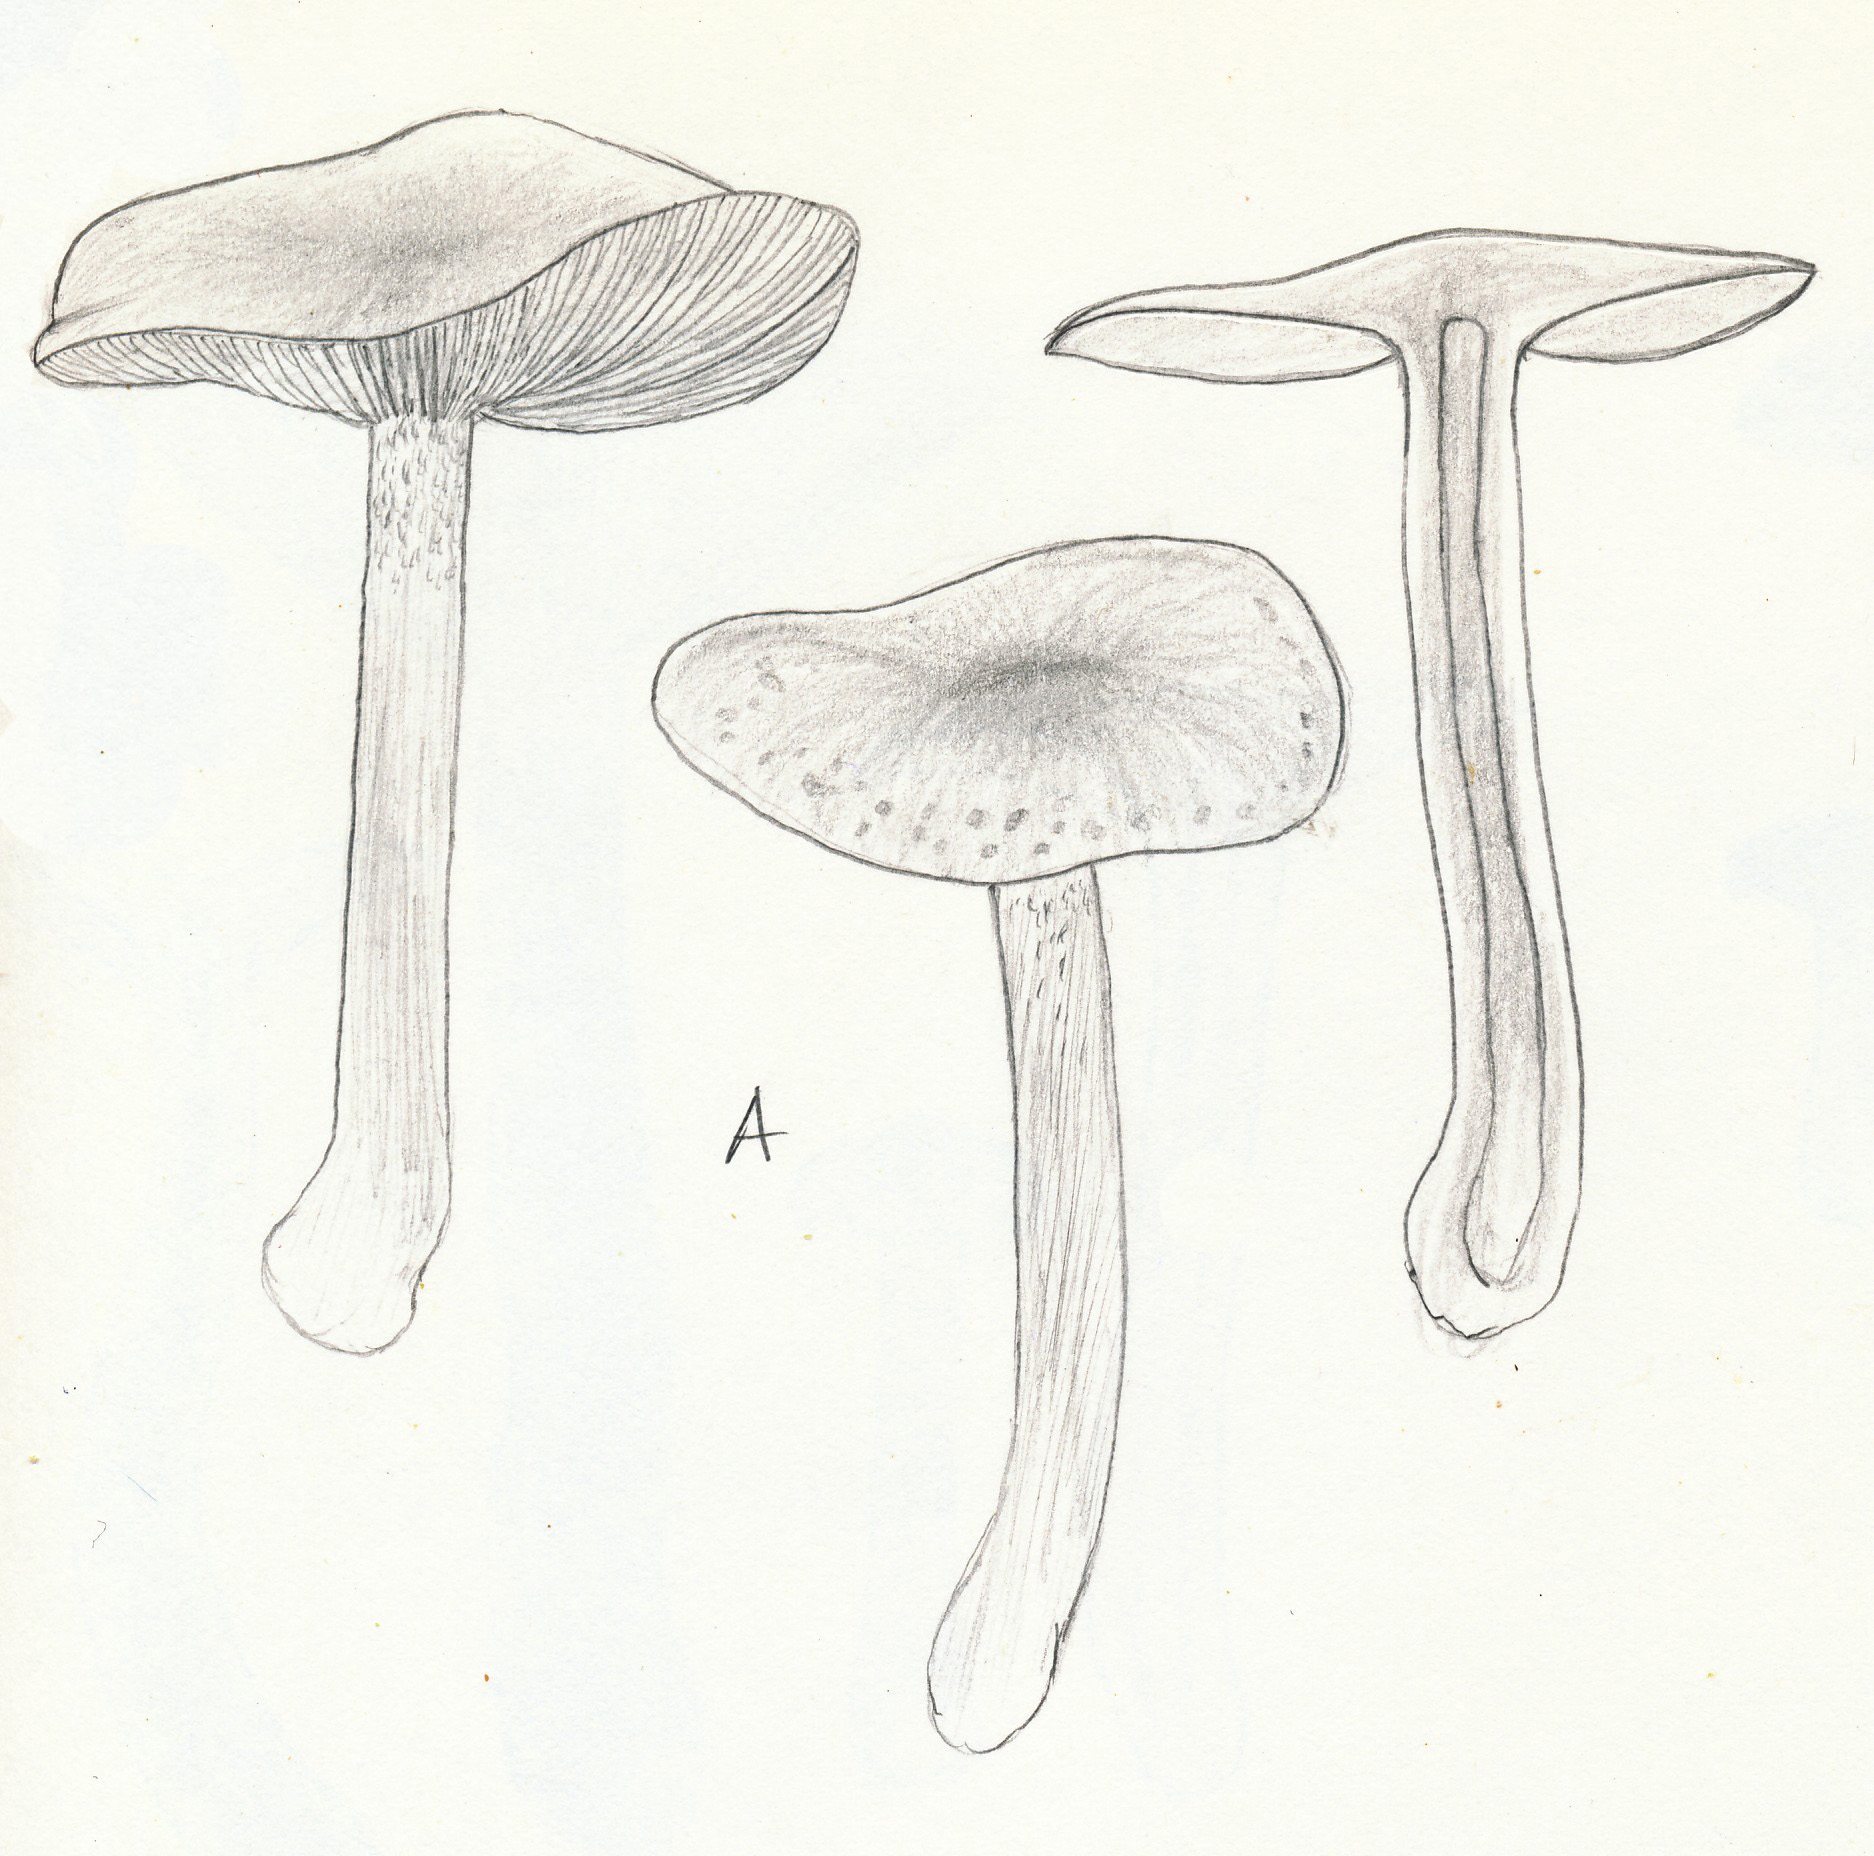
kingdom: Fungi
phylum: Basidiomycota
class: Agaricomycetes
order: Agaricales
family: Hymenogastraceae
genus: Hebeloma
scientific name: Hebeloma leucosarx
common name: højstokket tåreblad
